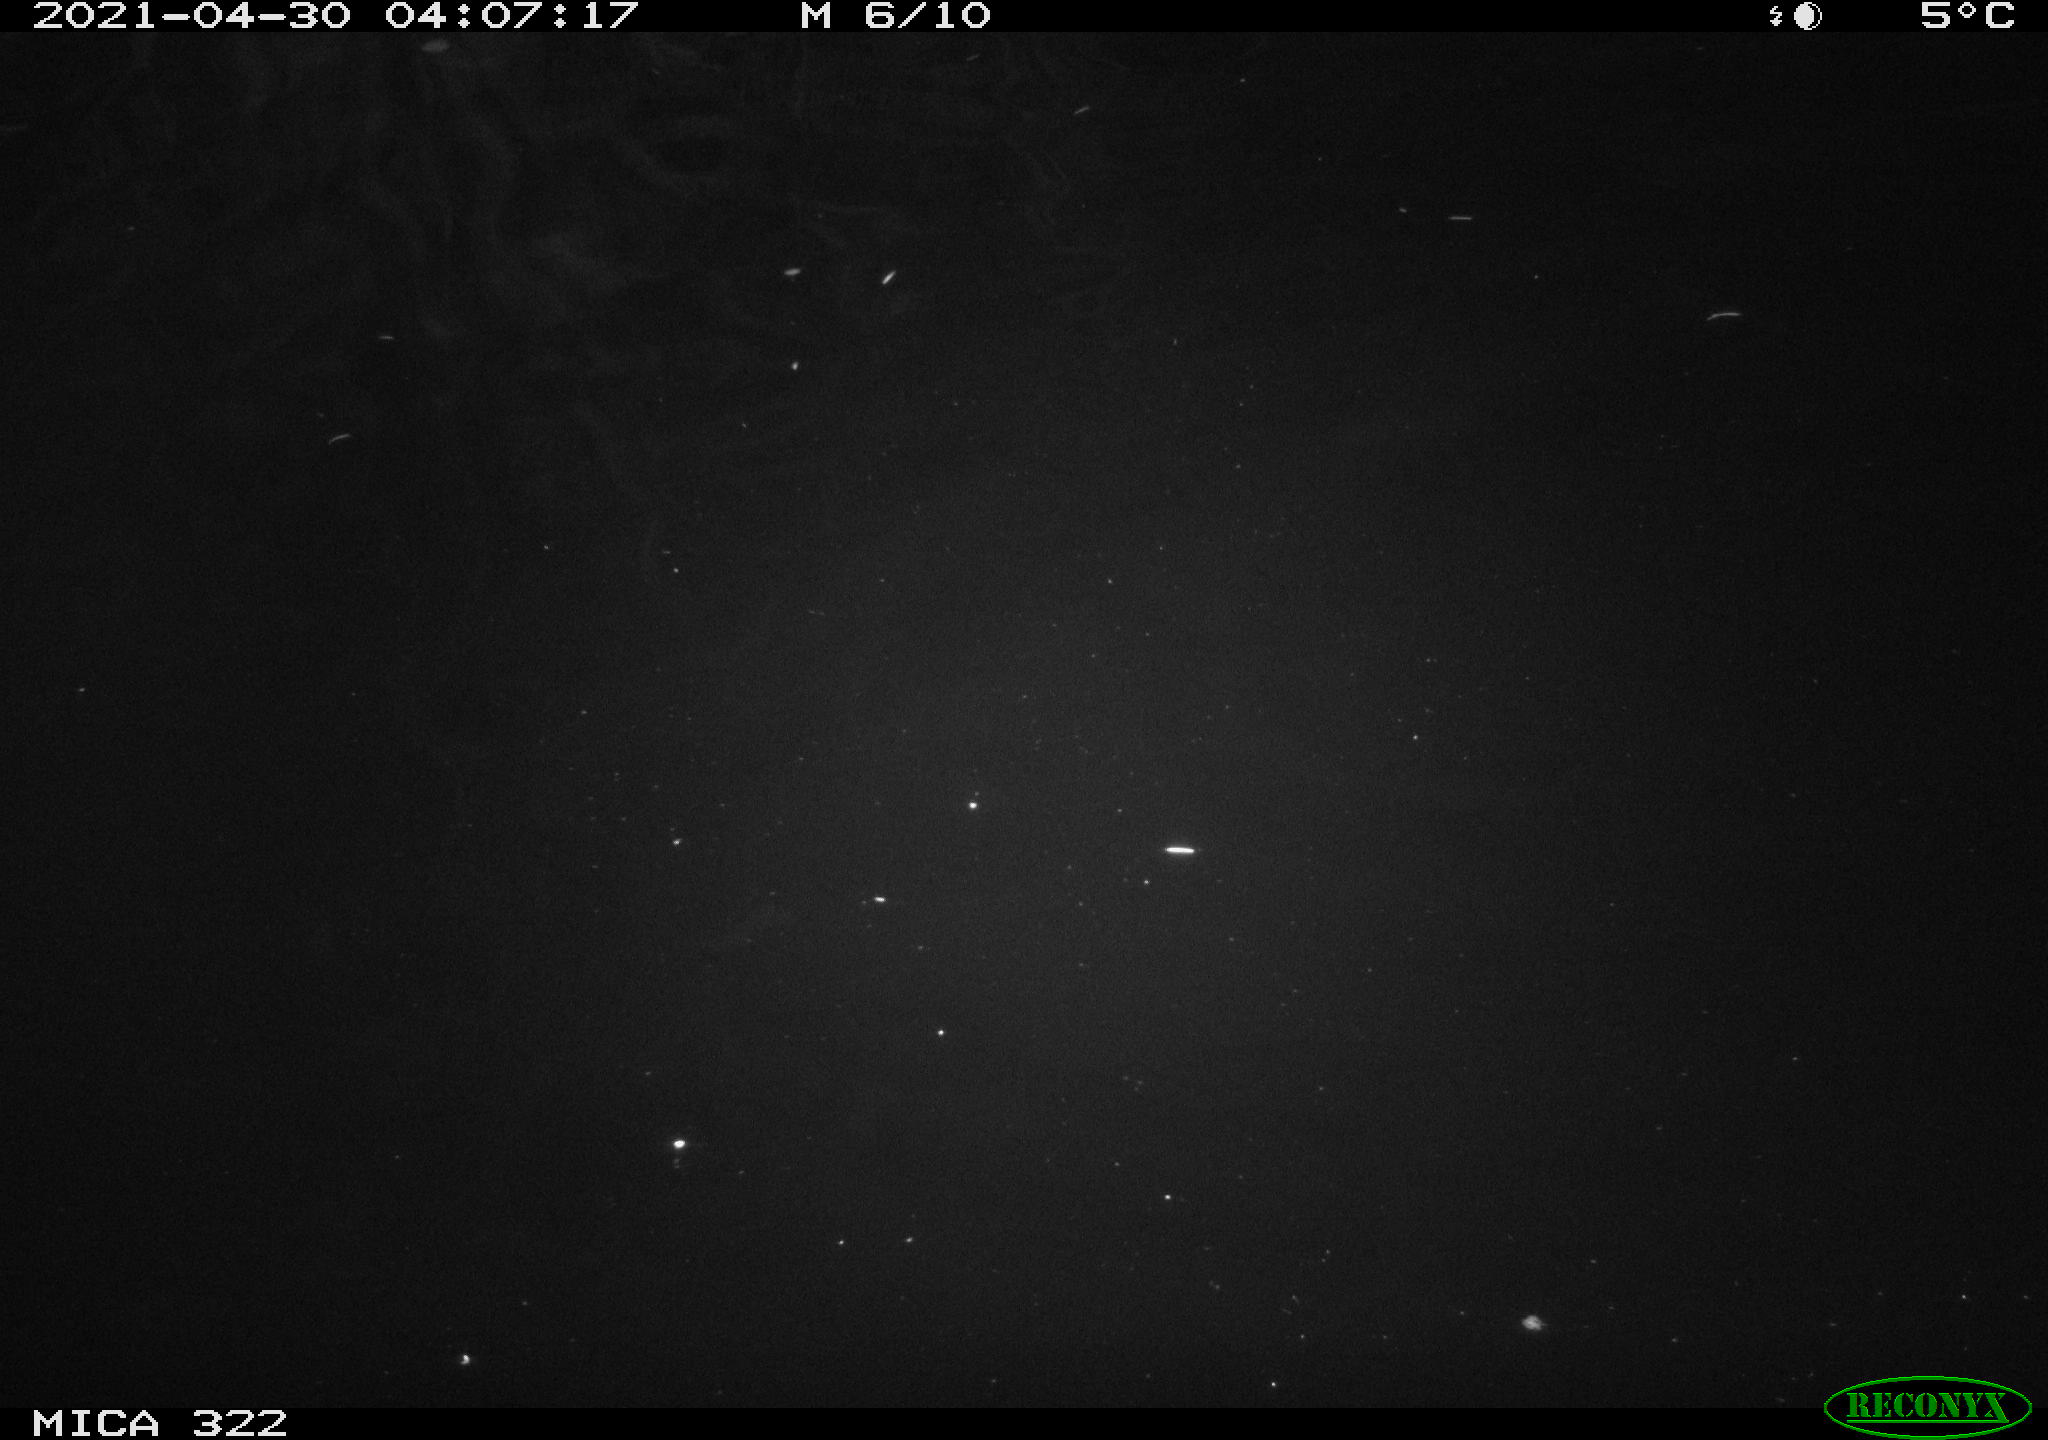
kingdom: Animalia
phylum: Chordata
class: Aves
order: Anseriformes
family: Anatidae
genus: Anas
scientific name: Anas platyrhynchos
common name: Mallard
